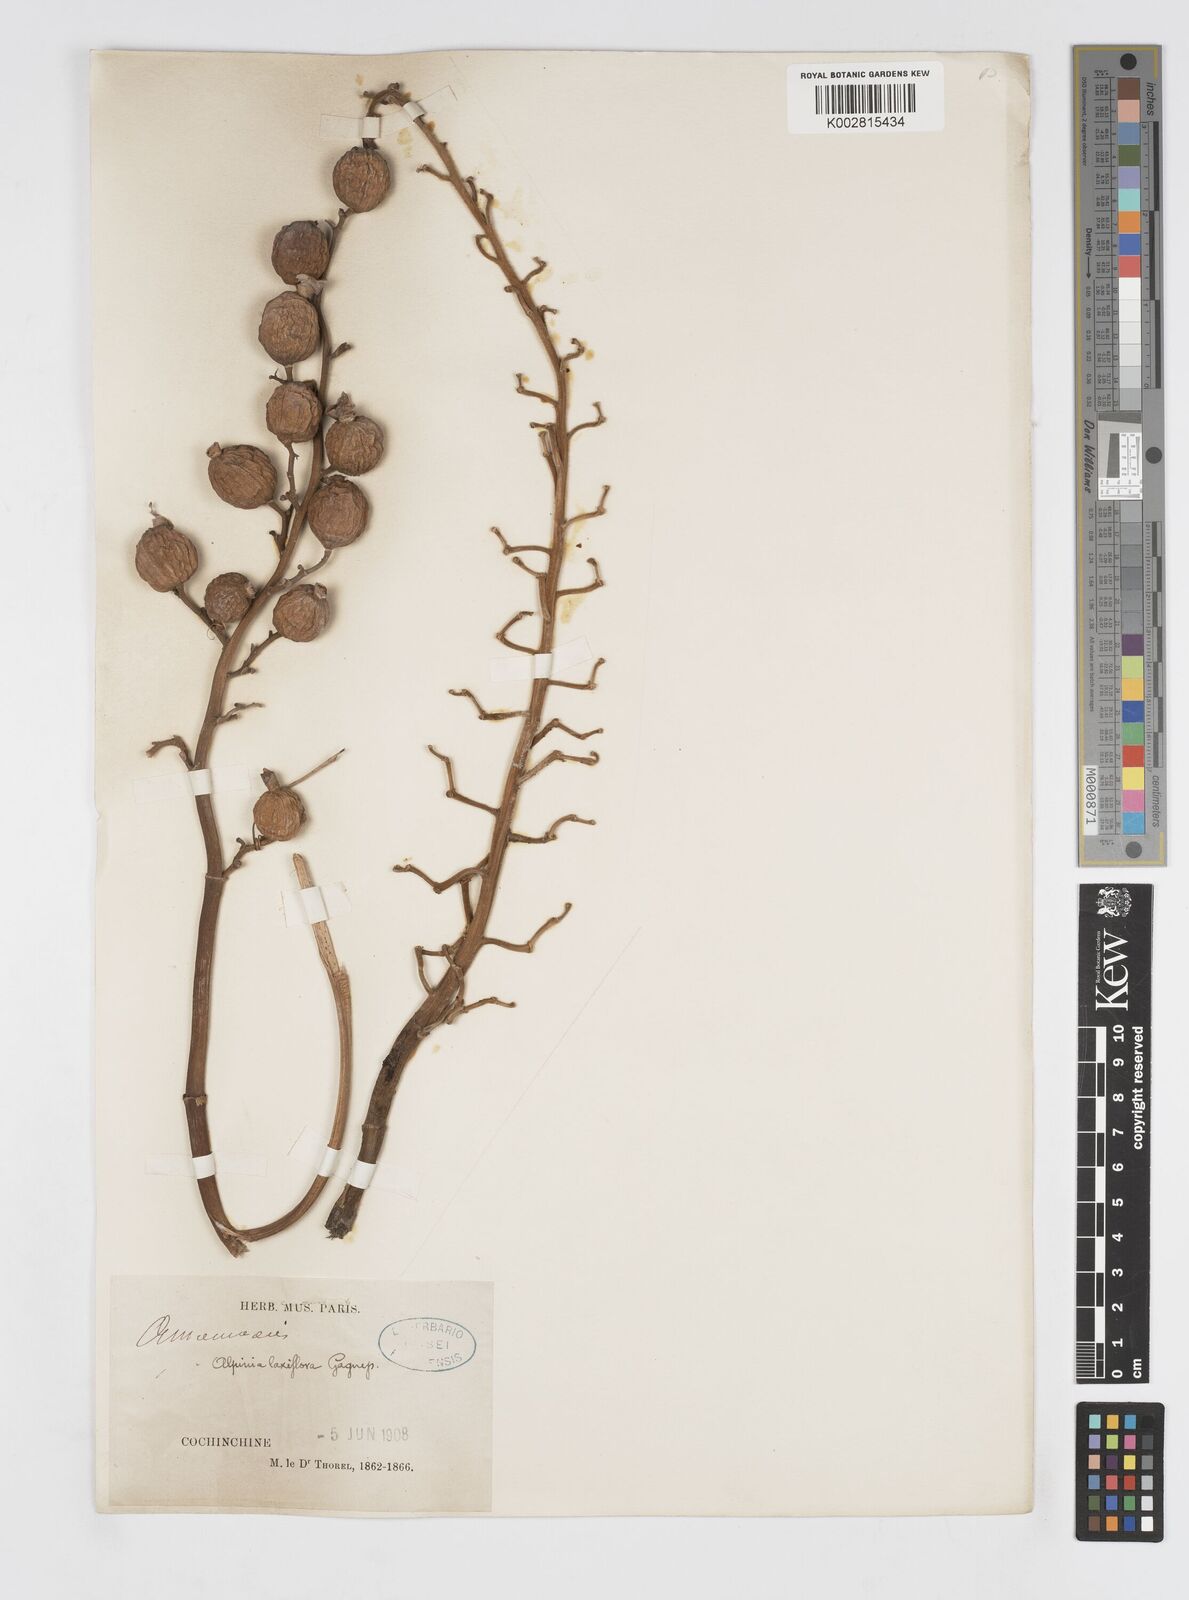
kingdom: Plantae
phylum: Tracheophyta
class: Liliopsida
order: Zingiberales
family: Zingiberaceae
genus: Alpinia
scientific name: Alpinia mutica
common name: Small shell ginger
